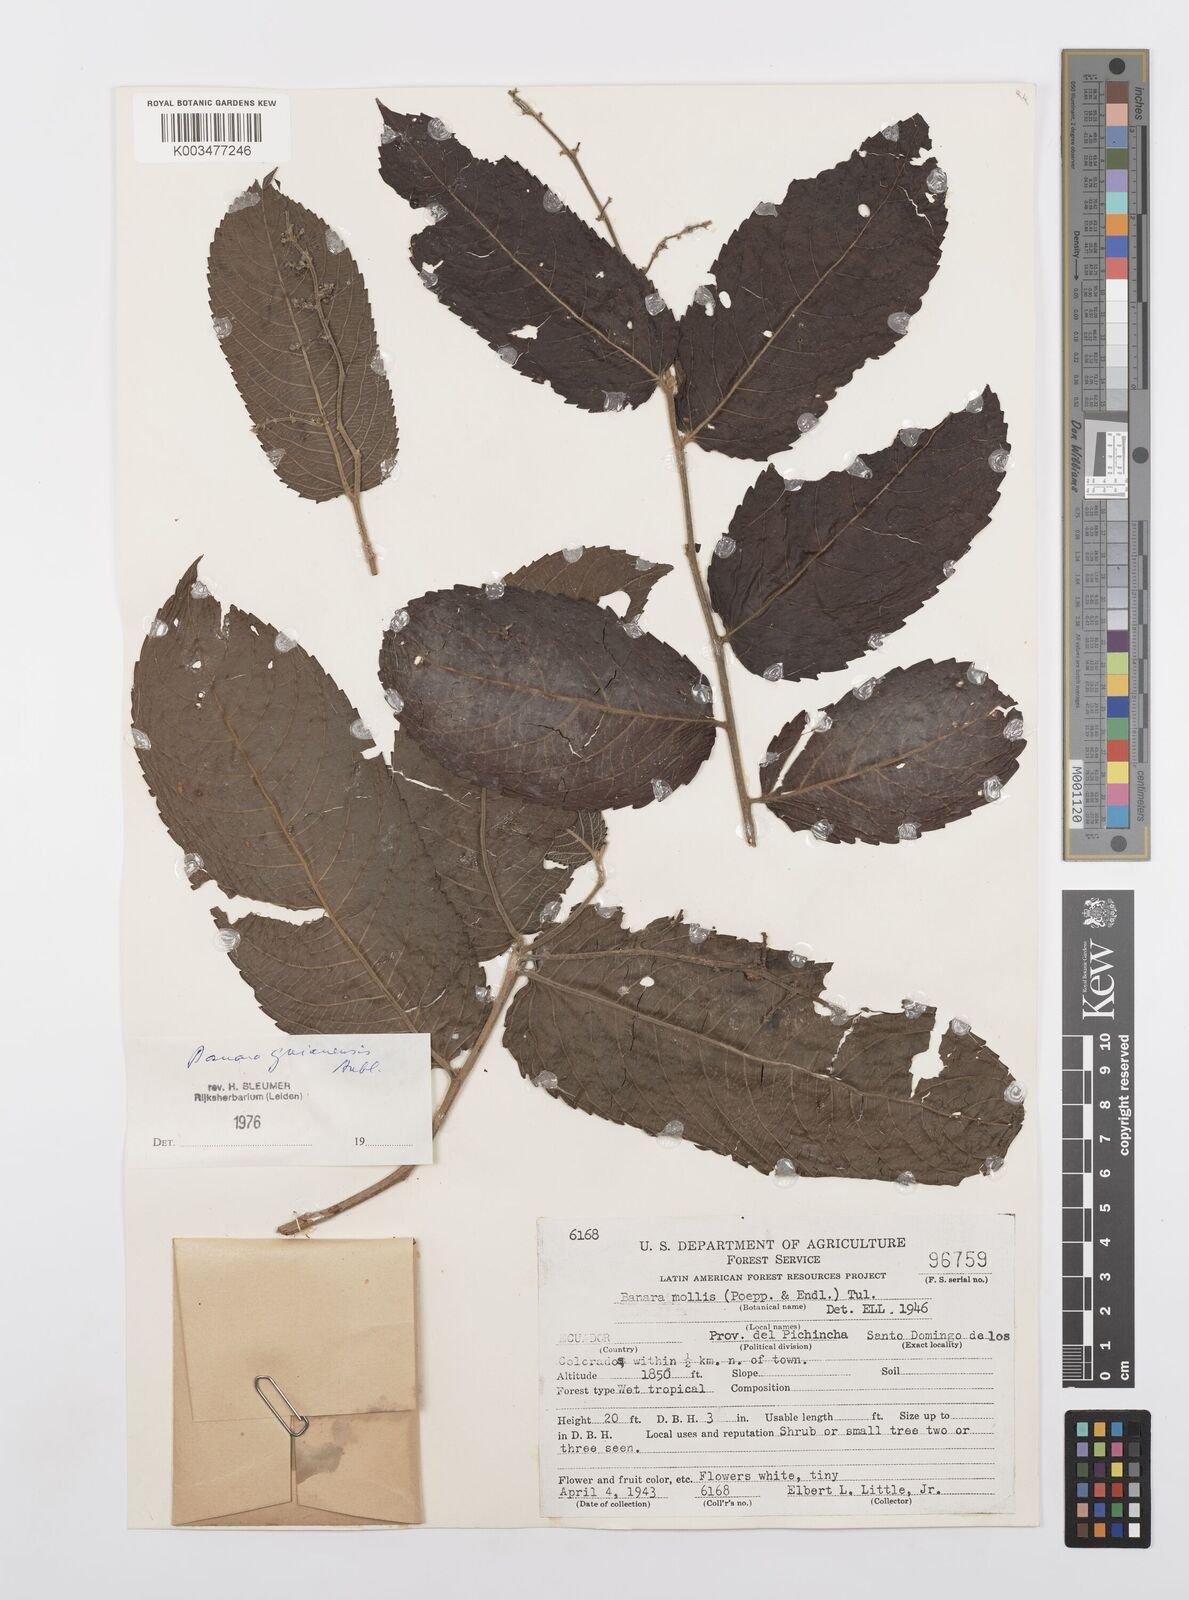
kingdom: Plantae
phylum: Tracheophyta
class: Magnoliopsida
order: Malpighiales
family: Salicaceae
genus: Banara
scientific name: Banara guianensis
